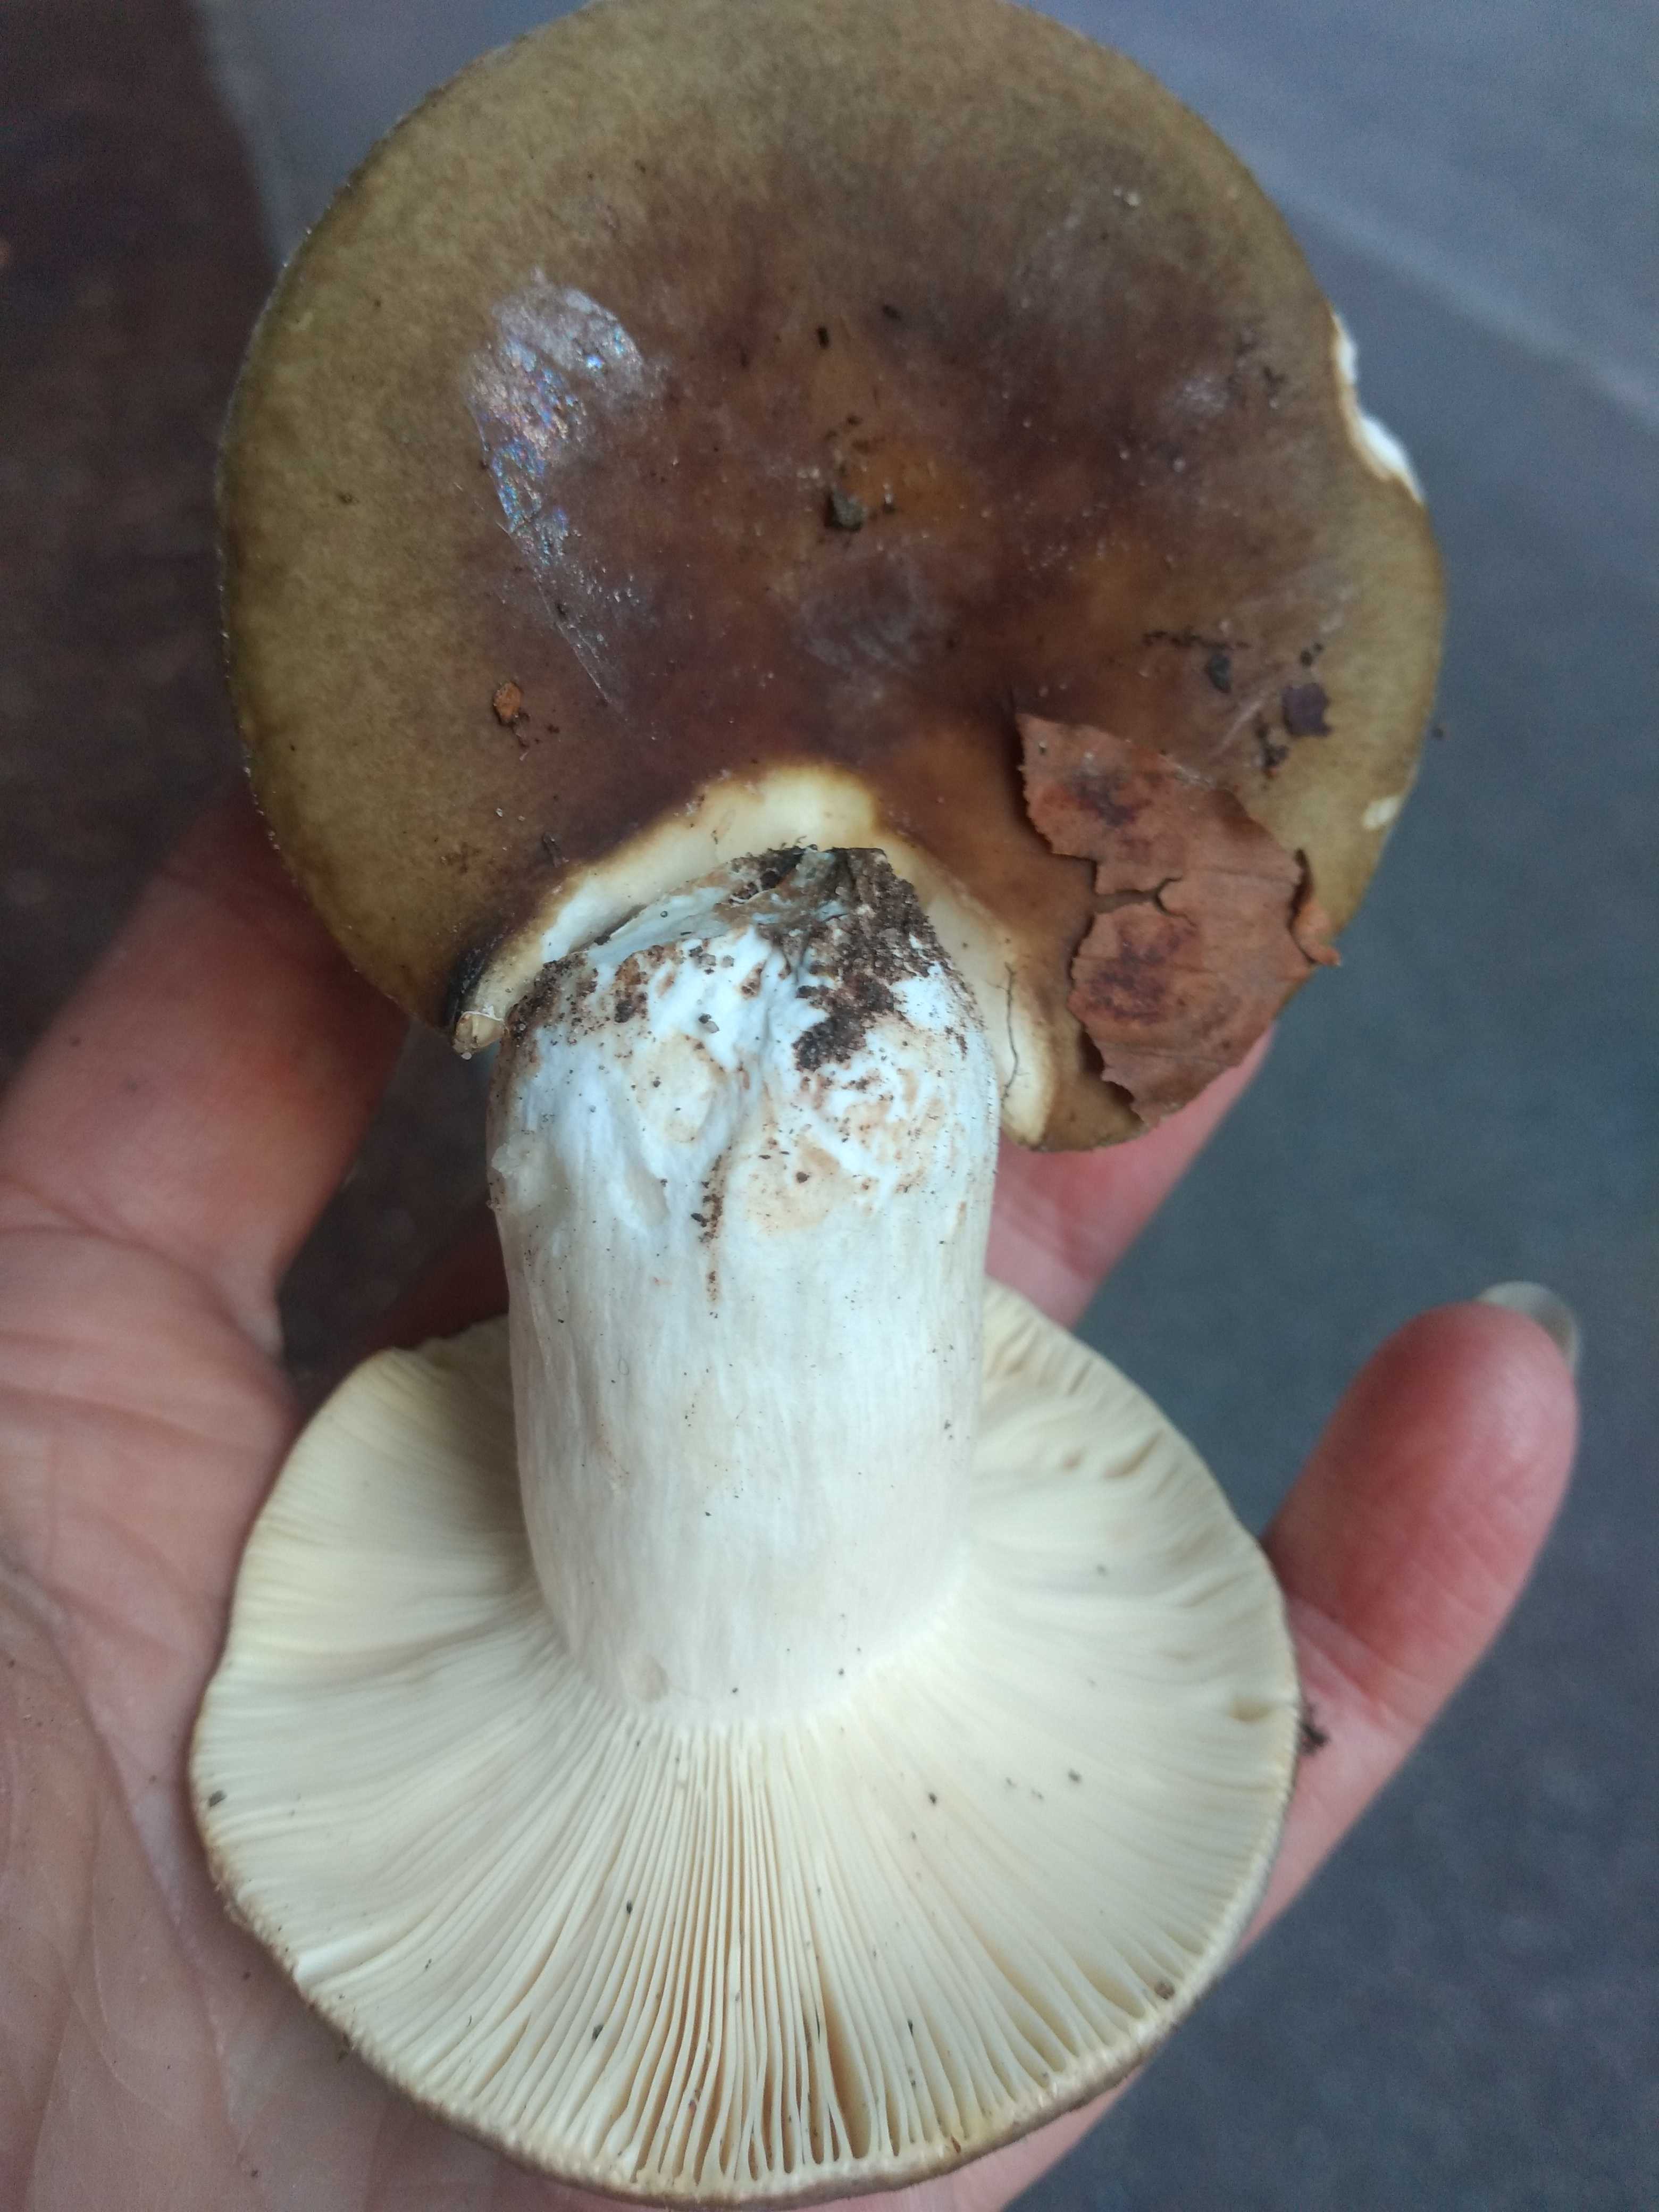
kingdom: Fungi
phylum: Basidiomycota
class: Agaricomycetes
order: Russulales
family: Russulaceae
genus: Russula
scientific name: Russula
